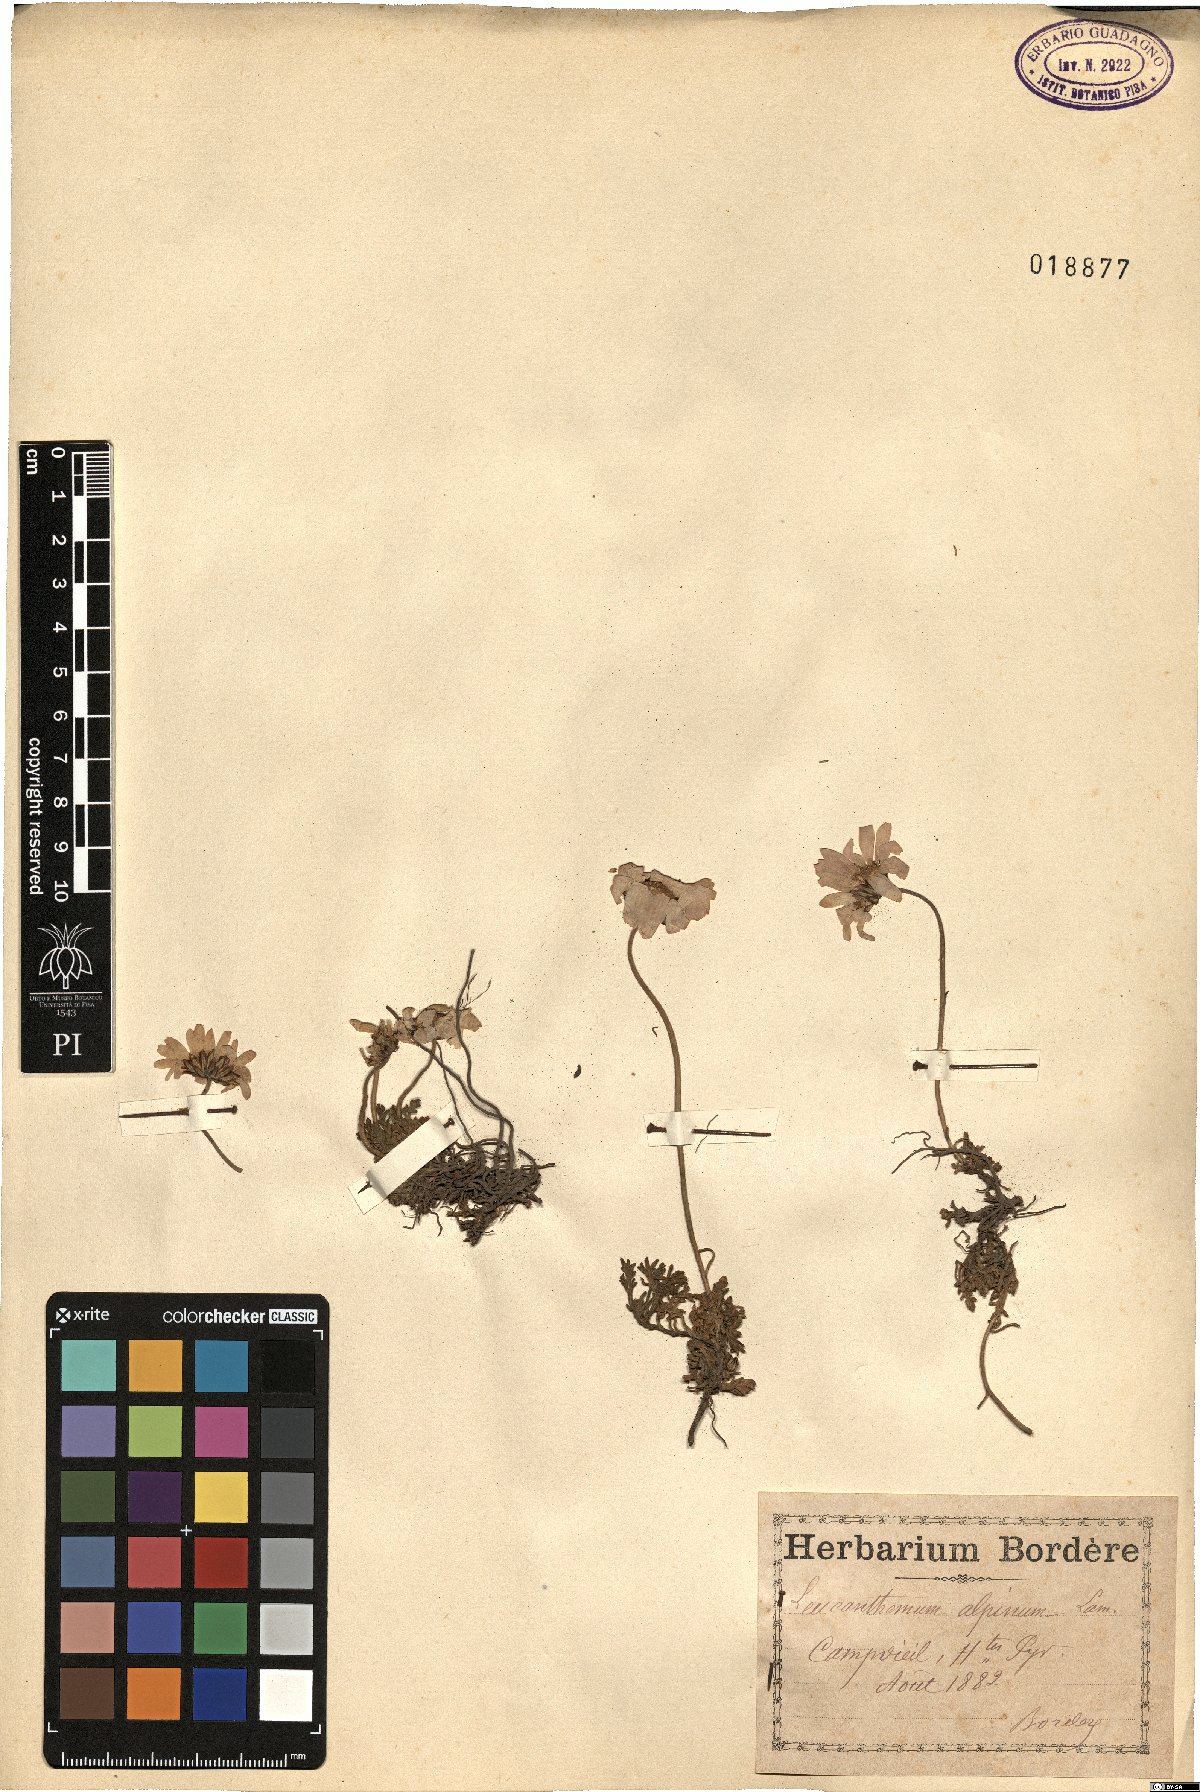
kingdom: Plantae
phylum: Tracheophyta
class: Magnoliopsida
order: Asterales
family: Asteraceae
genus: Leucanthemopsis
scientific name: Leucanthemopsis alpina
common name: Alpine moon daisy
